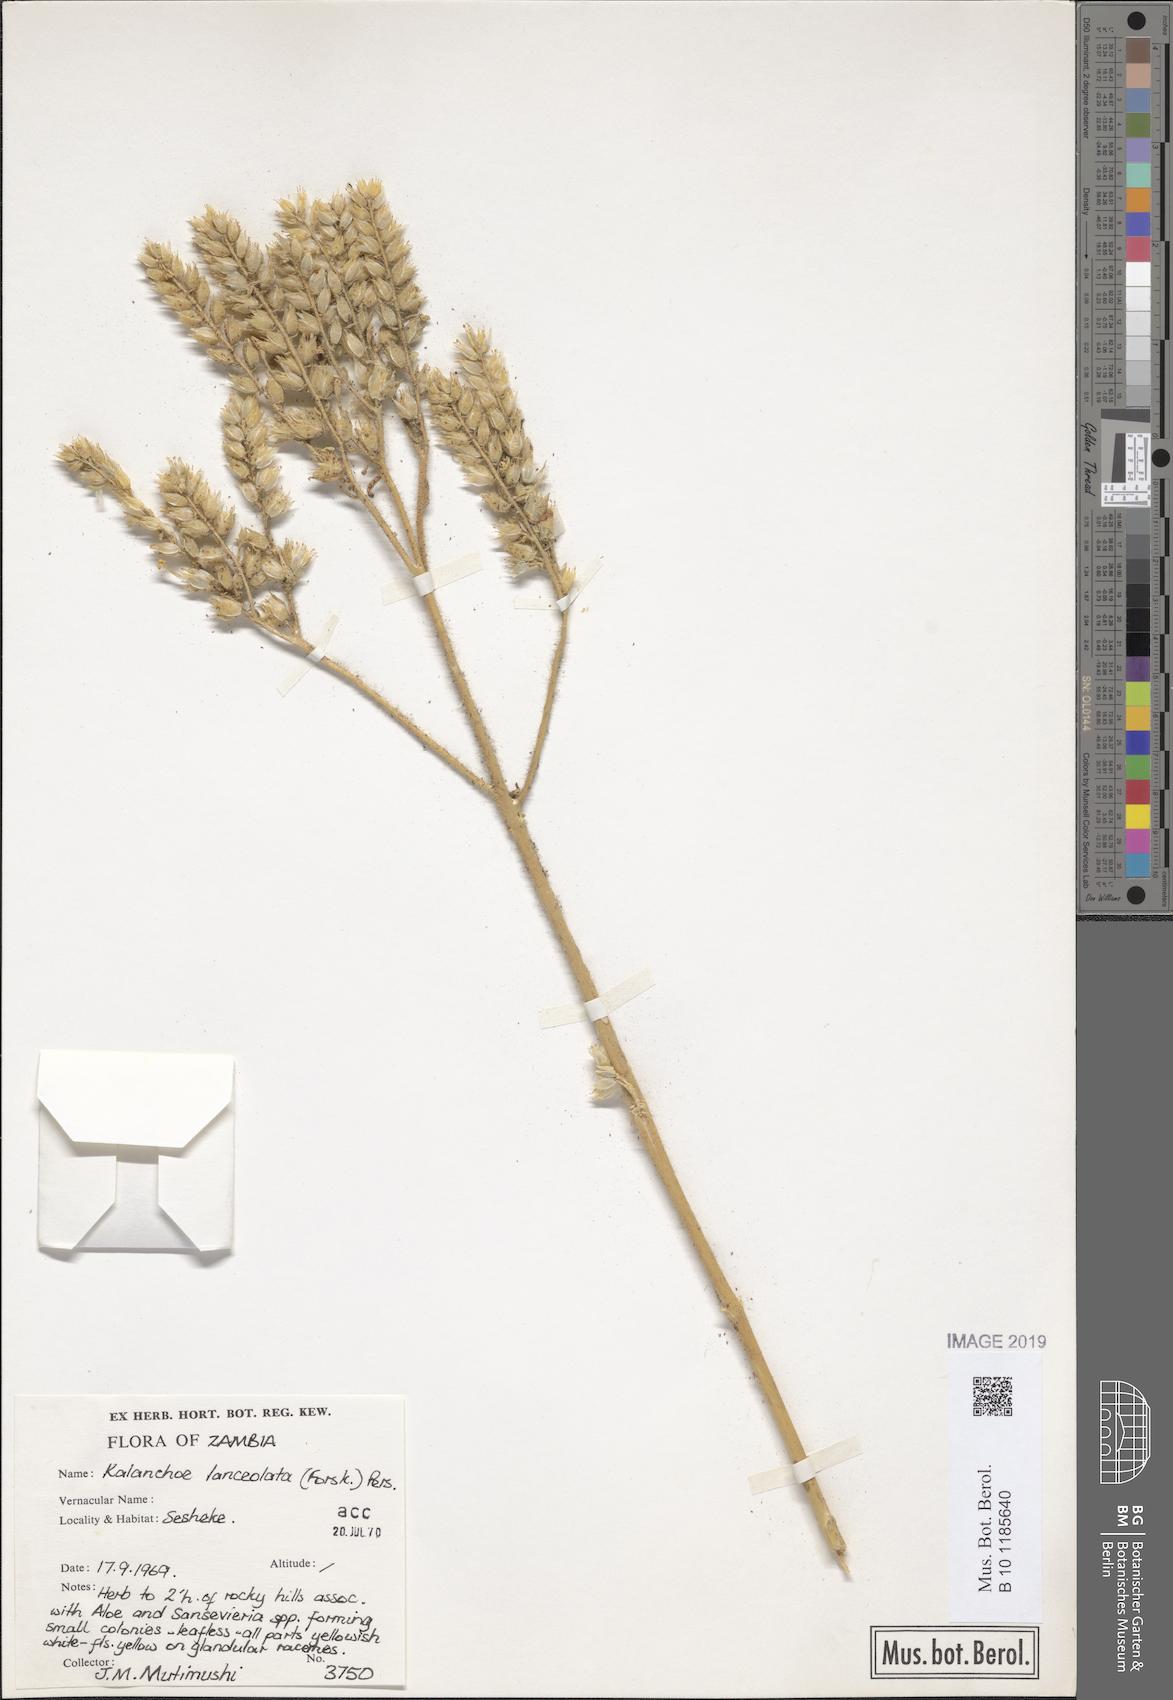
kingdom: Plantae
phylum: Tracheophyta
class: Magnoliopsida
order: Saxifragales
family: Crassulaceae
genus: Kalanchoe
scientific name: Kalanchoe lanceolata
